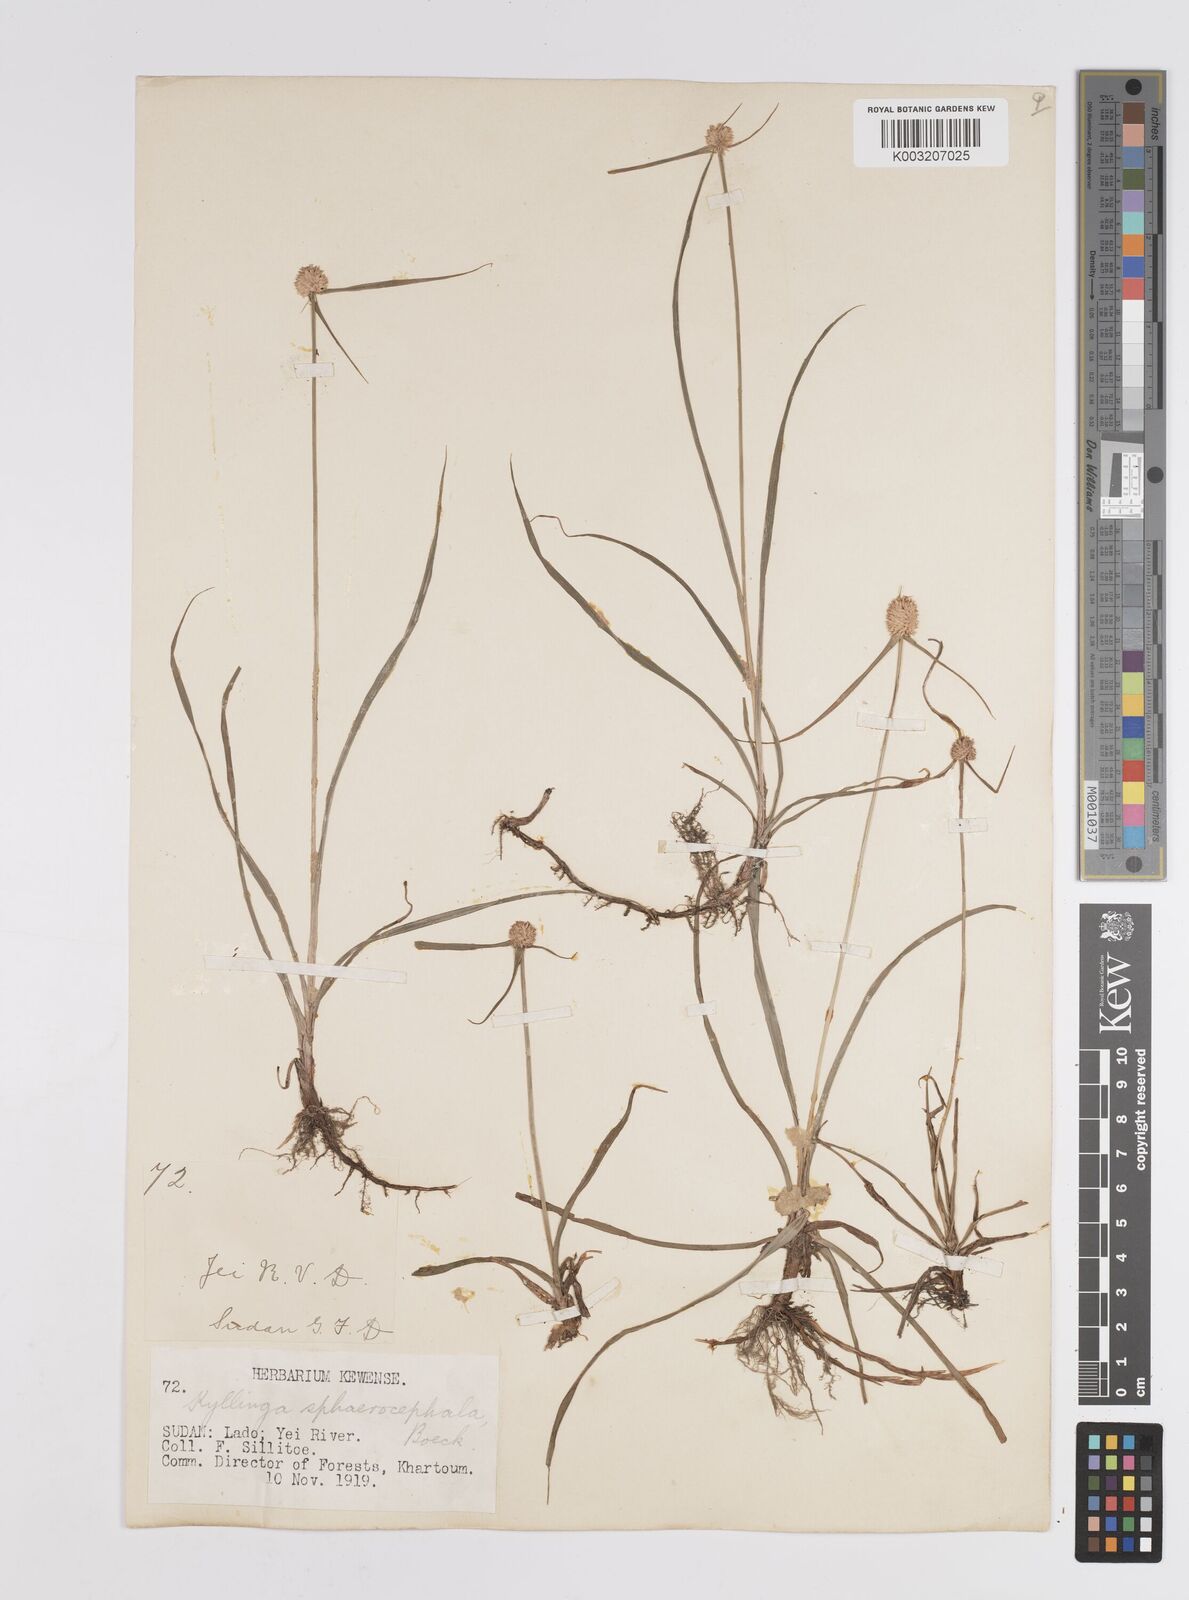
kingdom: Plantae
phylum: Tracheophyta
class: Liliopsida
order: Poales
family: Cyperaceae
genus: Cyperus
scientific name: Cyperus sphaerocephalus
